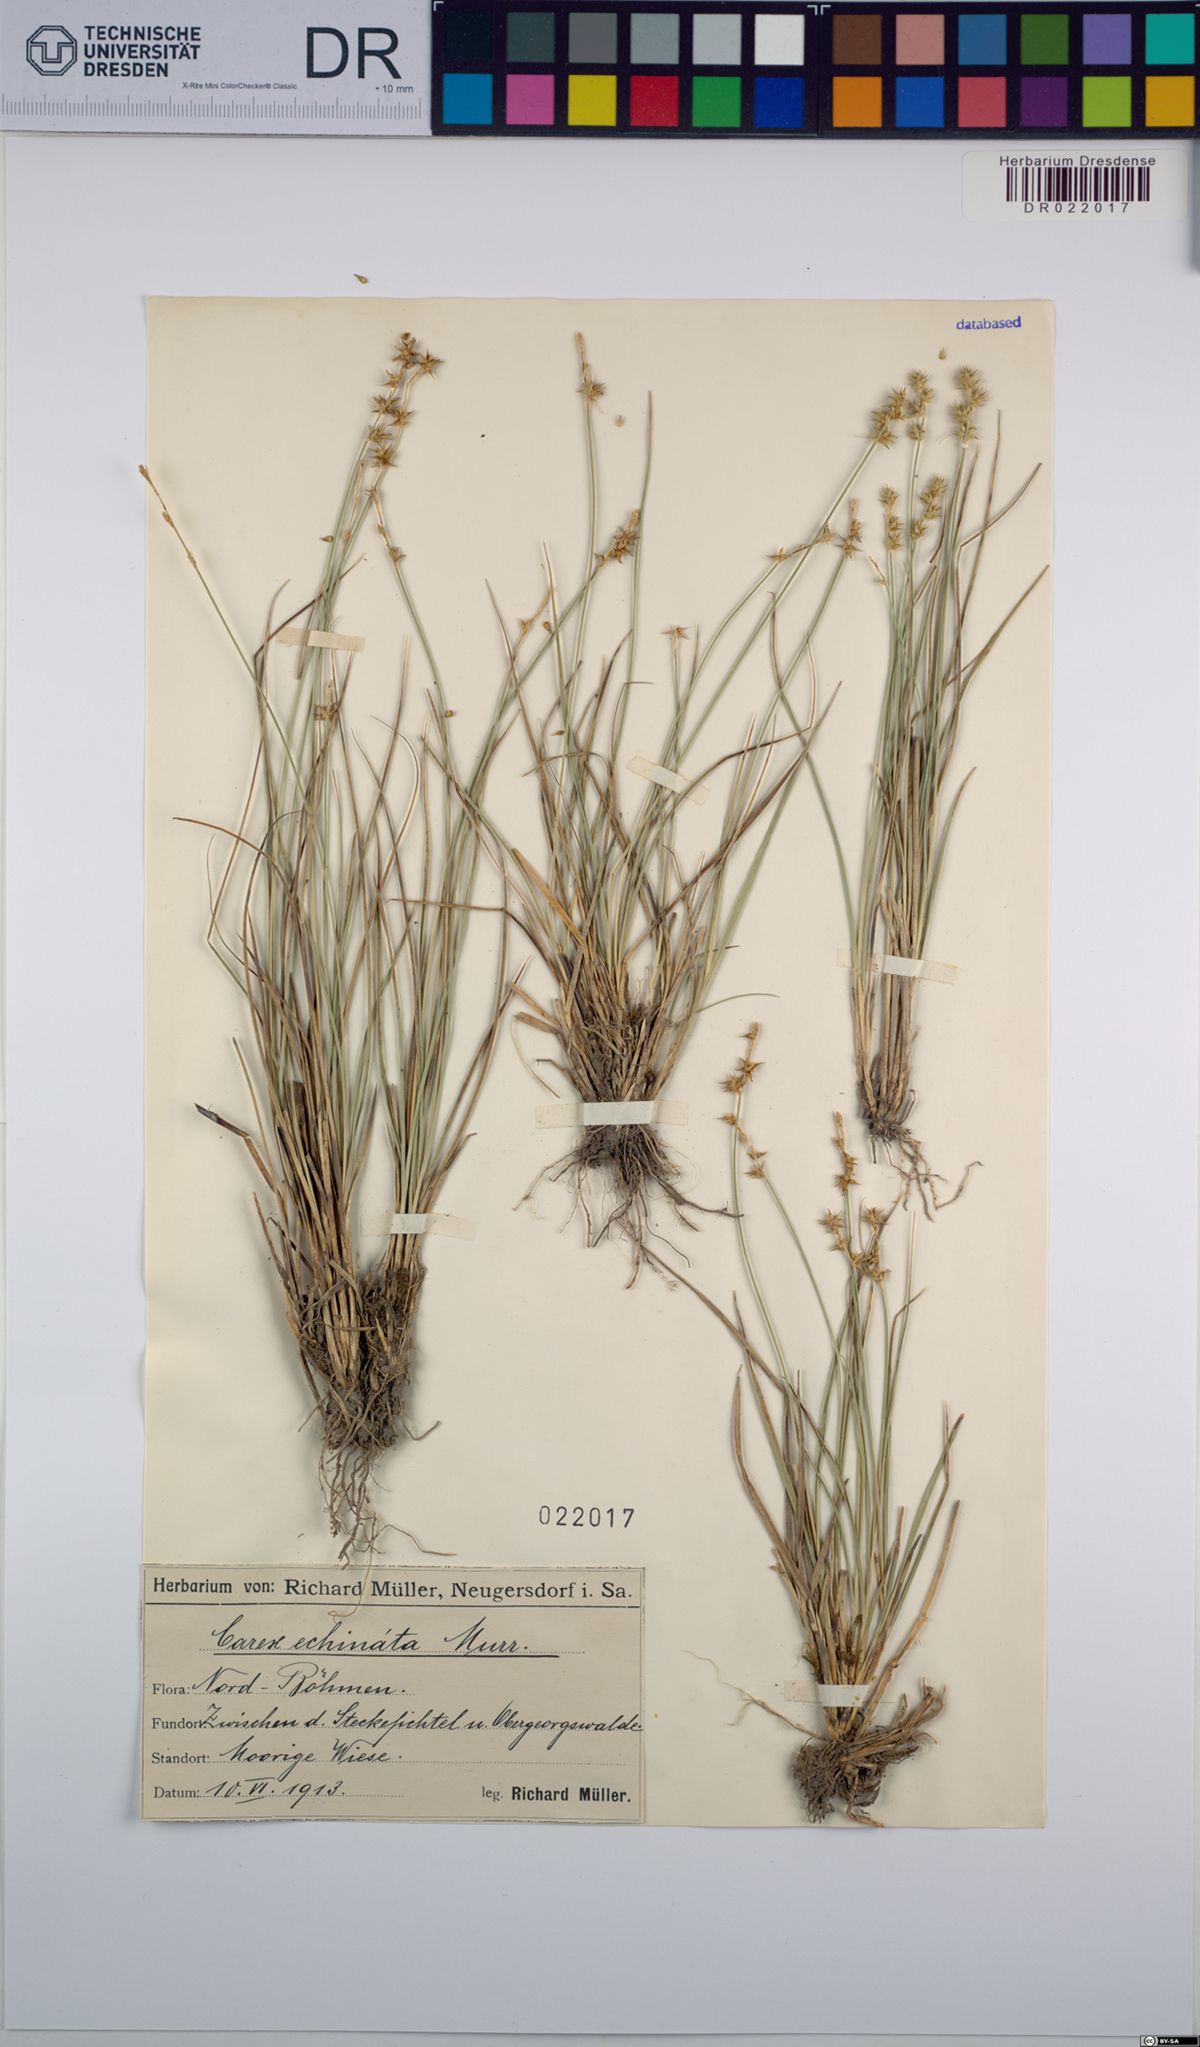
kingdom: Plantae
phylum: Tracheophyta
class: Liliopsida
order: Poales
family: Cyperaceae
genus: Carex
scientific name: Carex echinata
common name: Star sedge
